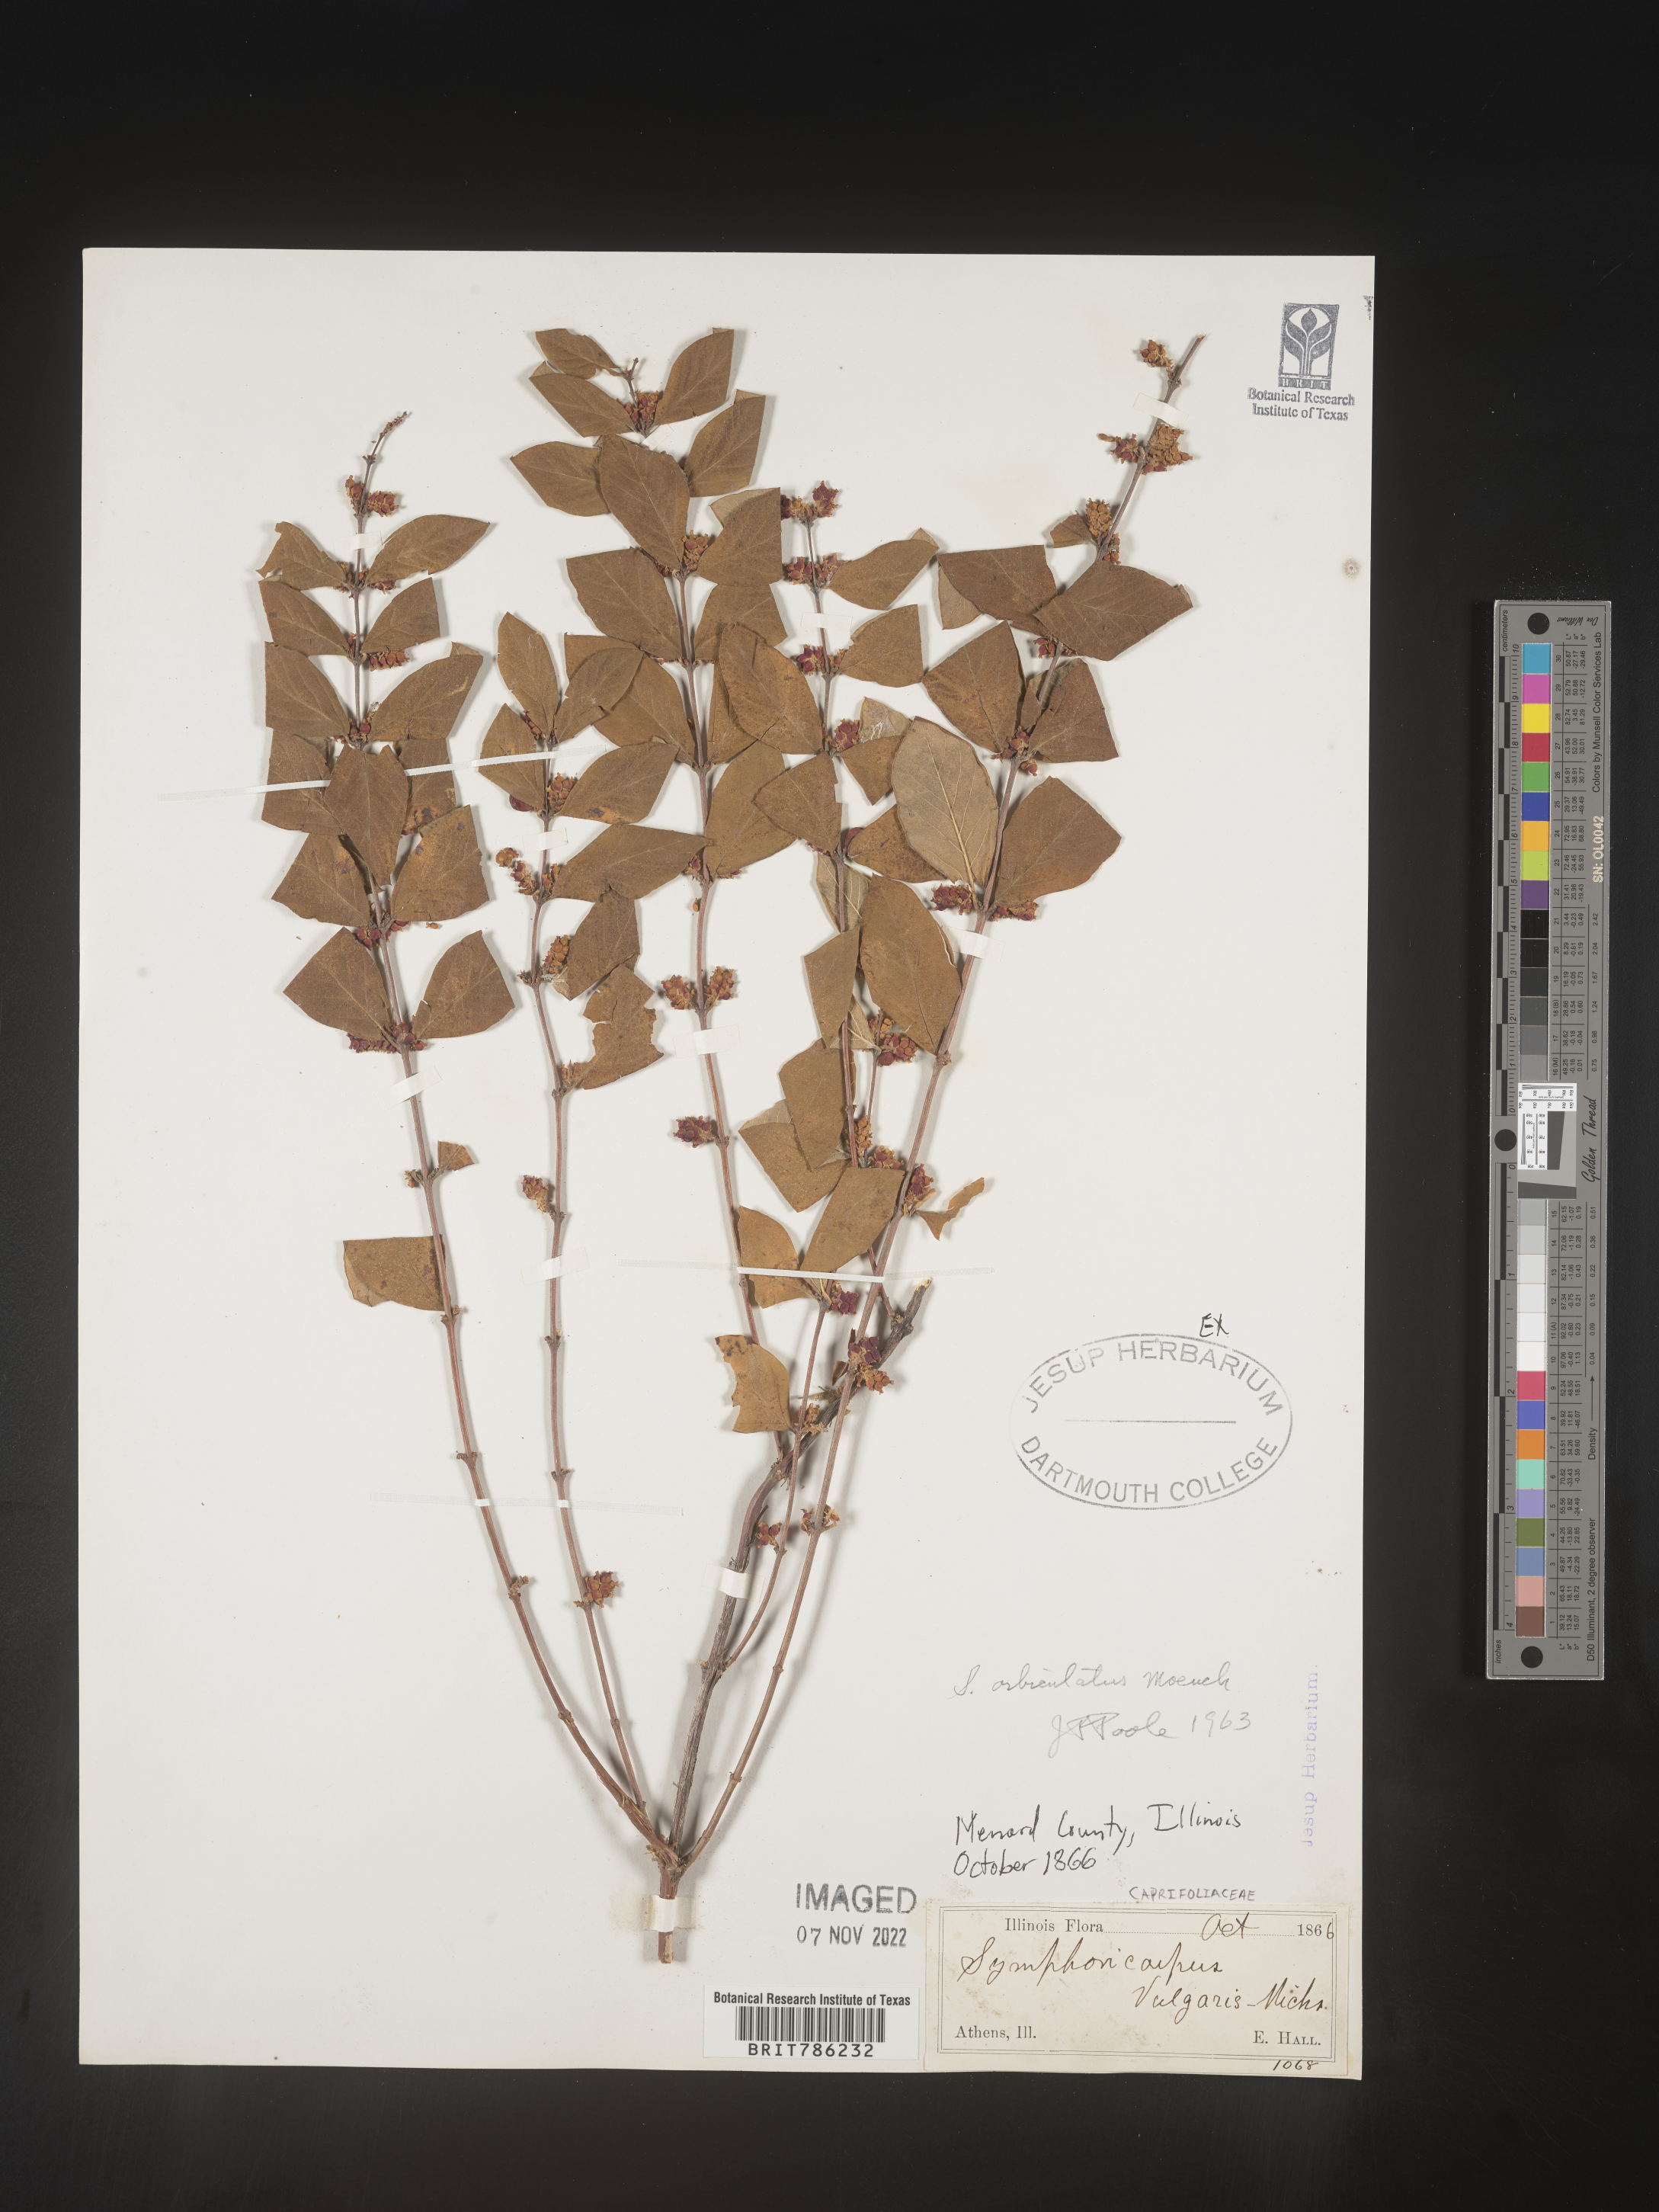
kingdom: Plantae
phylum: Tracheophyta
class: Magnoliopsida
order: Dipsacales
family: Caprifoliaceae
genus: Symphoricarpos
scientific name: Symphoricarpos orbiculatus
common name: Coralberry
